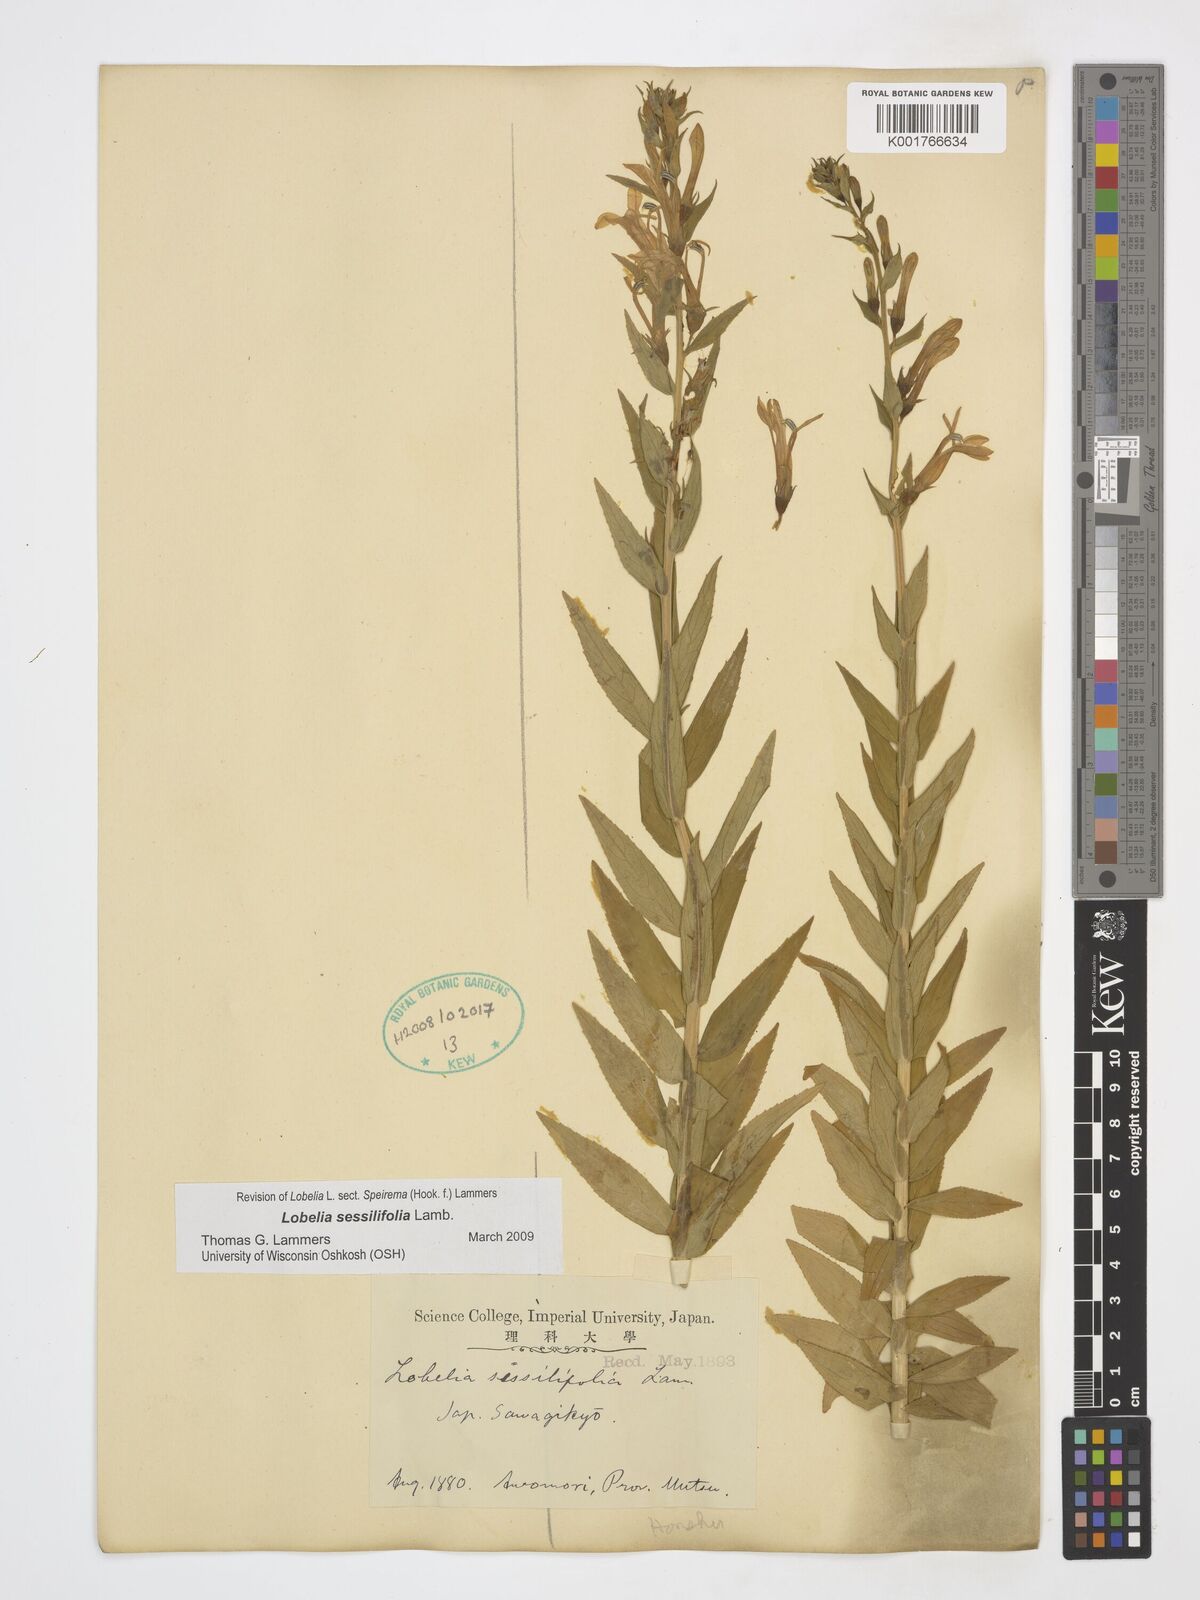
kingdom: Plantae
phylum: Tracheophyta
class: Magnoliopsida
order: Asterales
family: Campanulaceae
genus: Lobelia
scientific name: Lobelia sessilifolia
